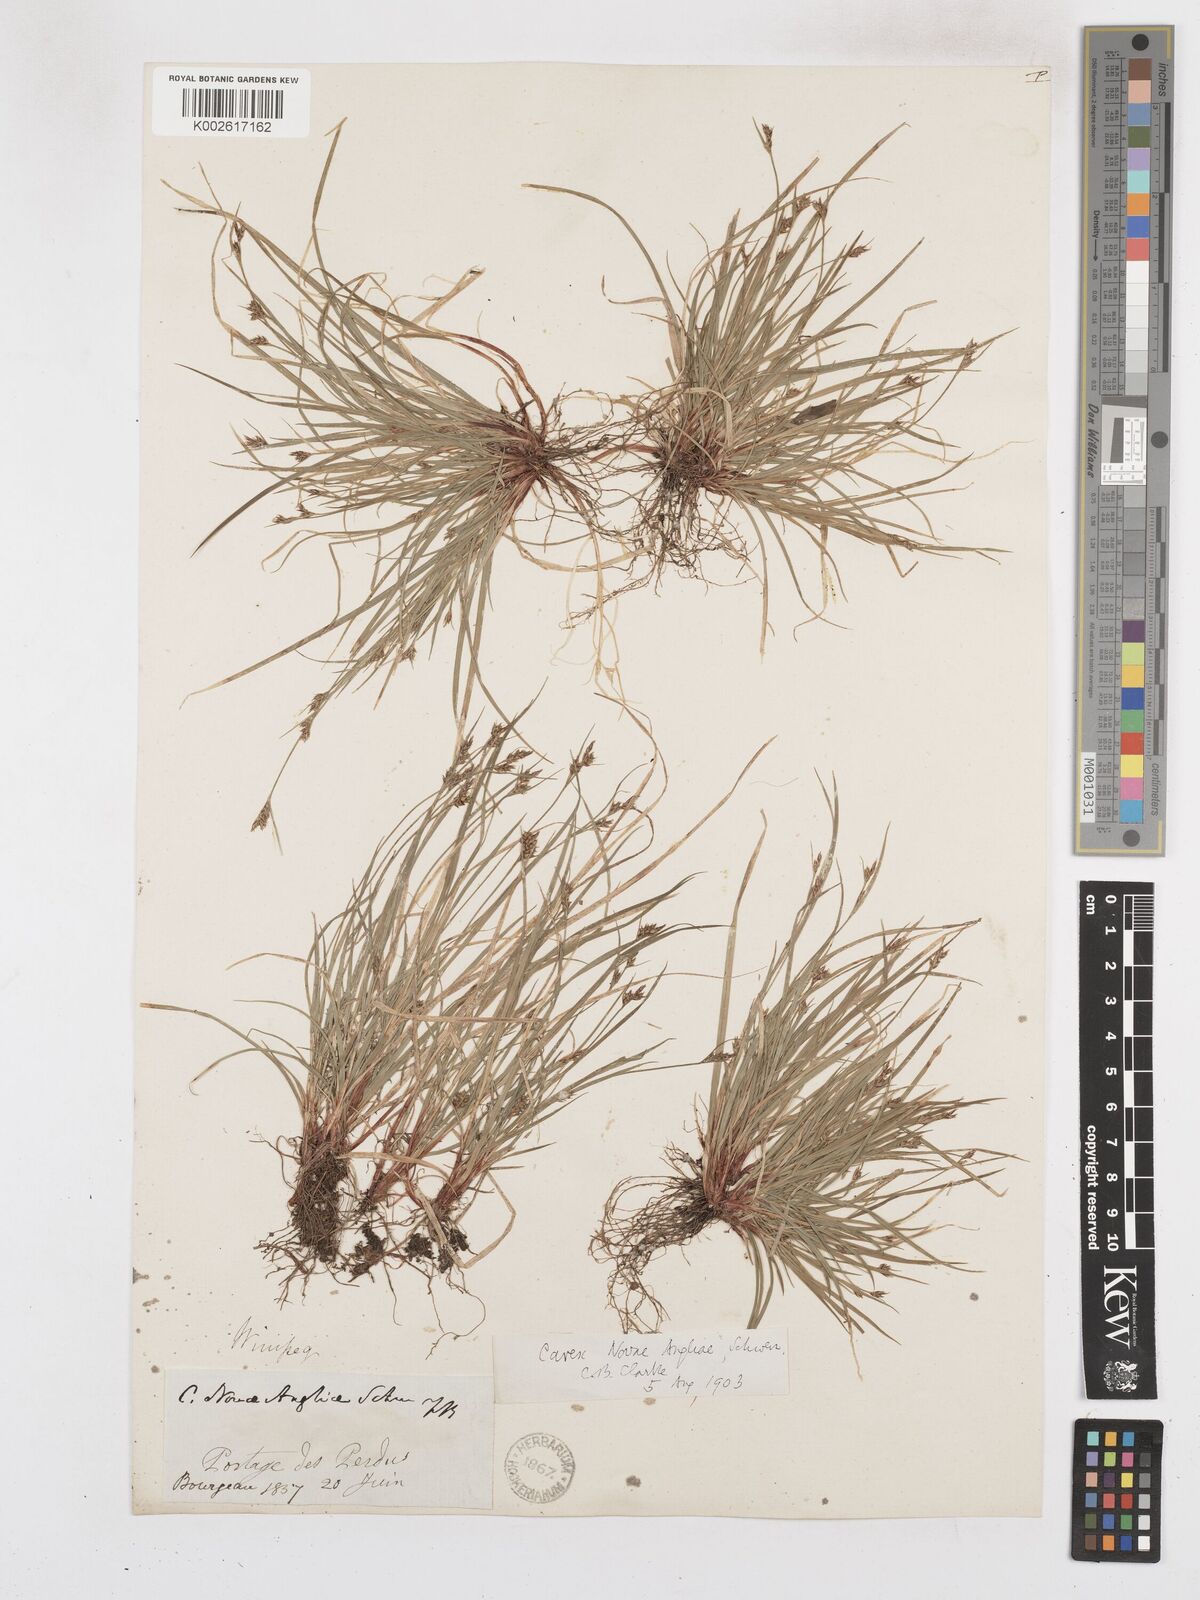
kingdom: Plantae
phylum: Tracheophyta
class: Liliopsida
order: Poales
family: Cyperaceae
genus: Carex
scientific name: Carex novae-angliae
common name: New england sedge
